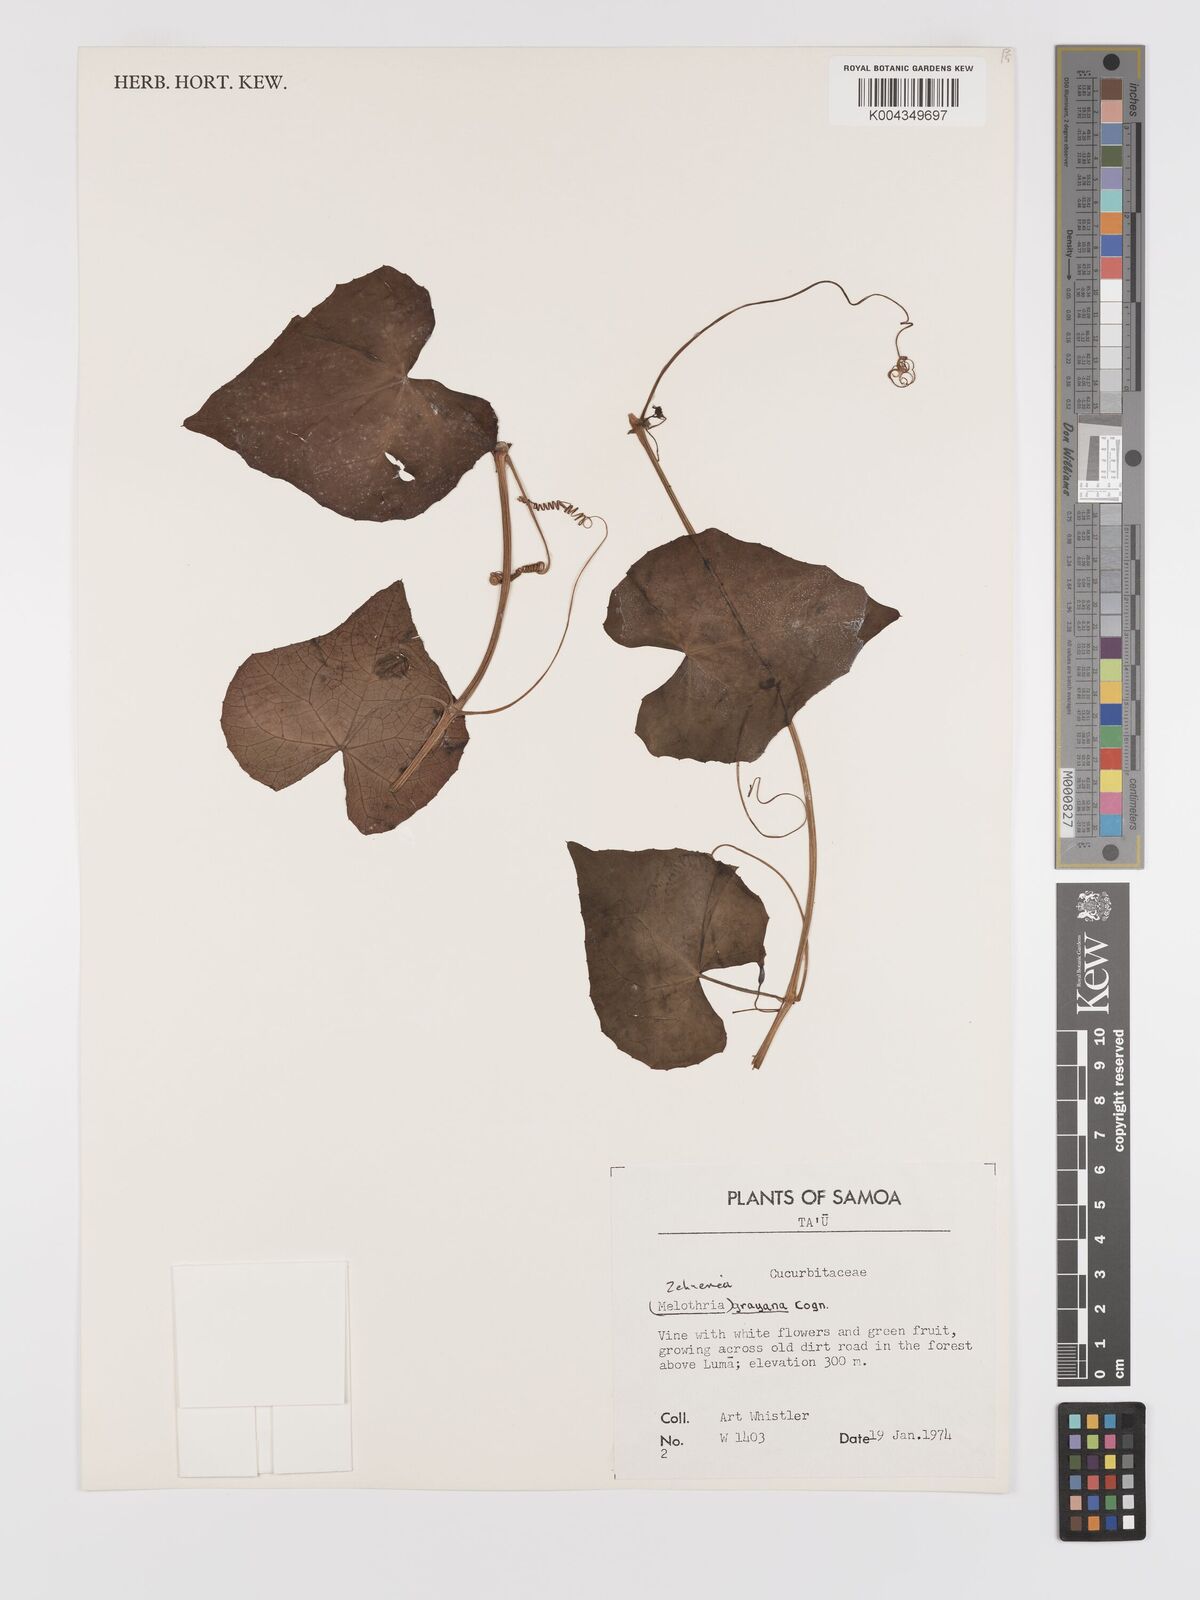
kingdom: Plantae
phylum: Tracheophyta
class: Magnoliopsida
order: Cucurbitales
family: Cucurbitaceae
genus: Zehneria
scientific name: Zehneria
